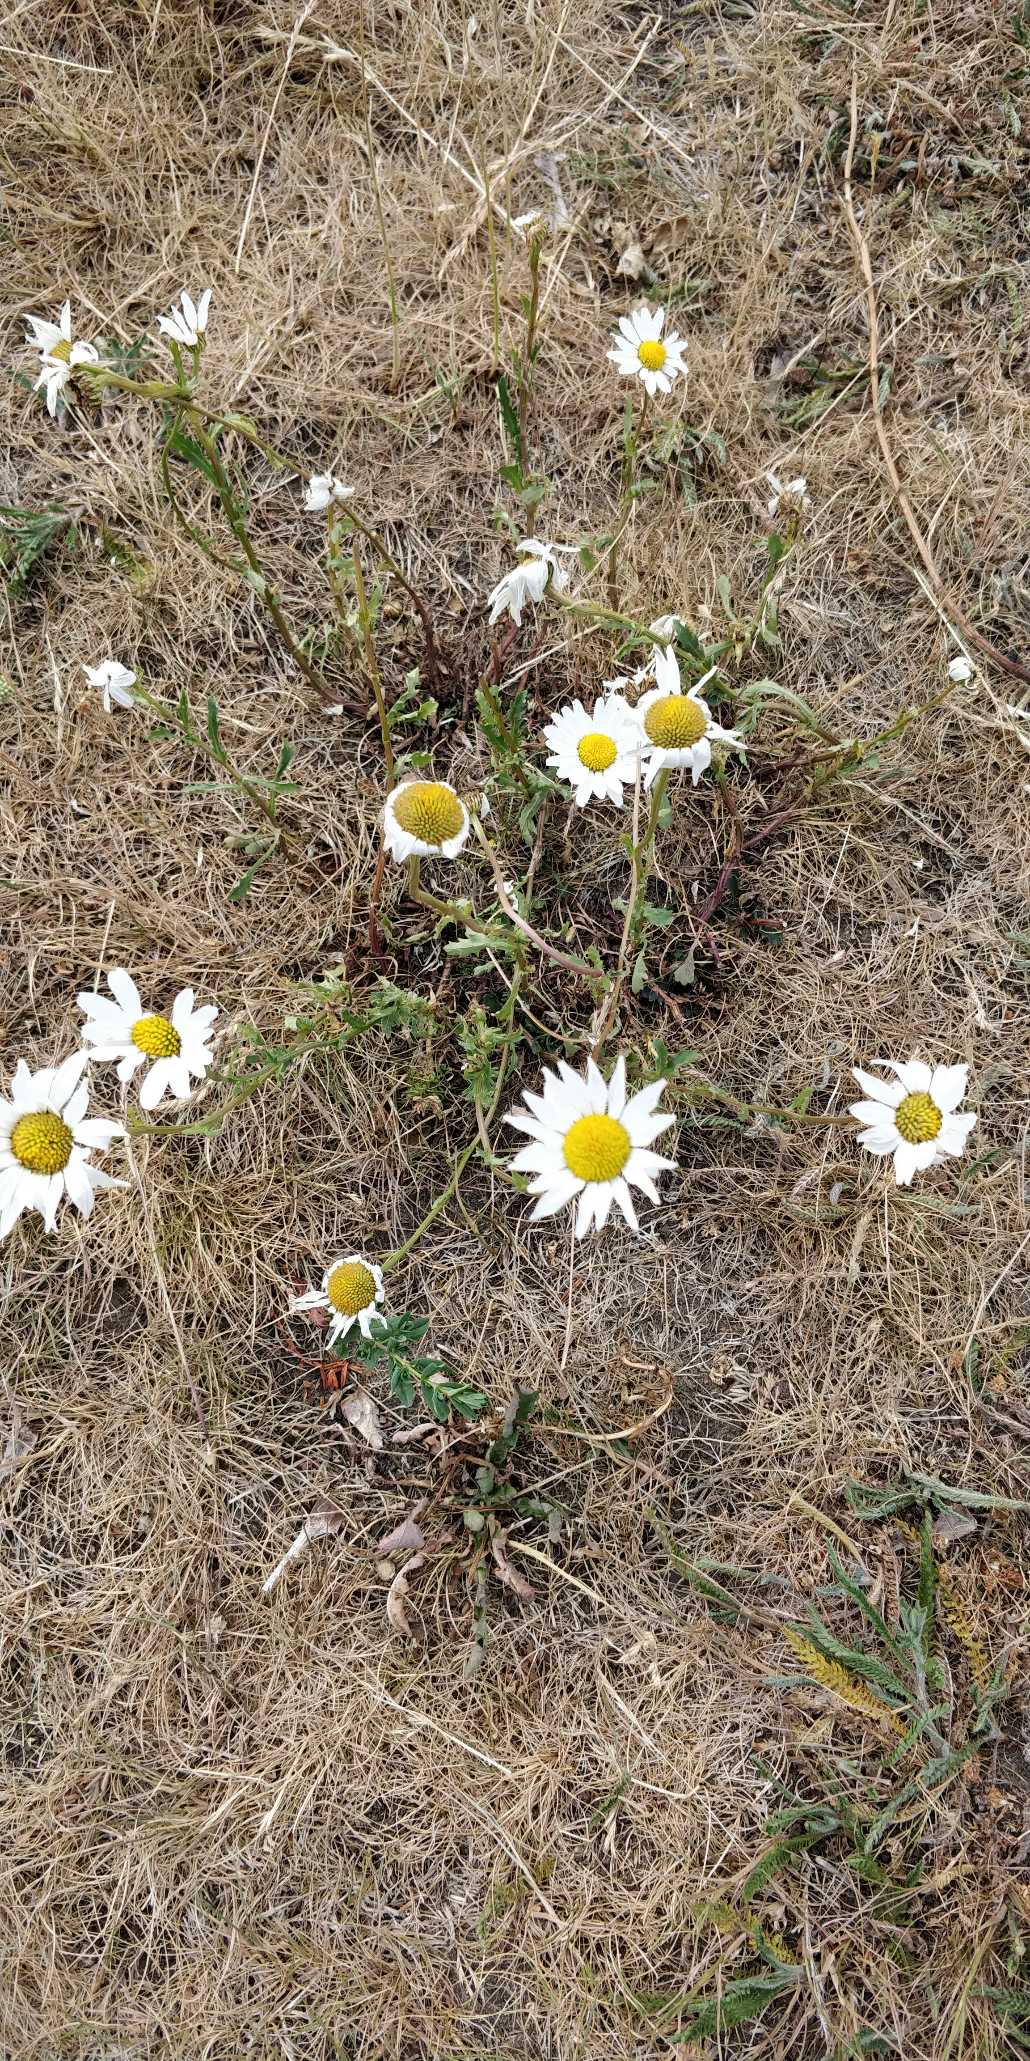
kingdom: Plantae
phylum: Tracheophyta
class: Magnoliopsida
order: Asterales
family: Asteraceae
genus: Leucanthemum
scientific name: Leucanthemum vulgare
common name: Hvid okseøje
